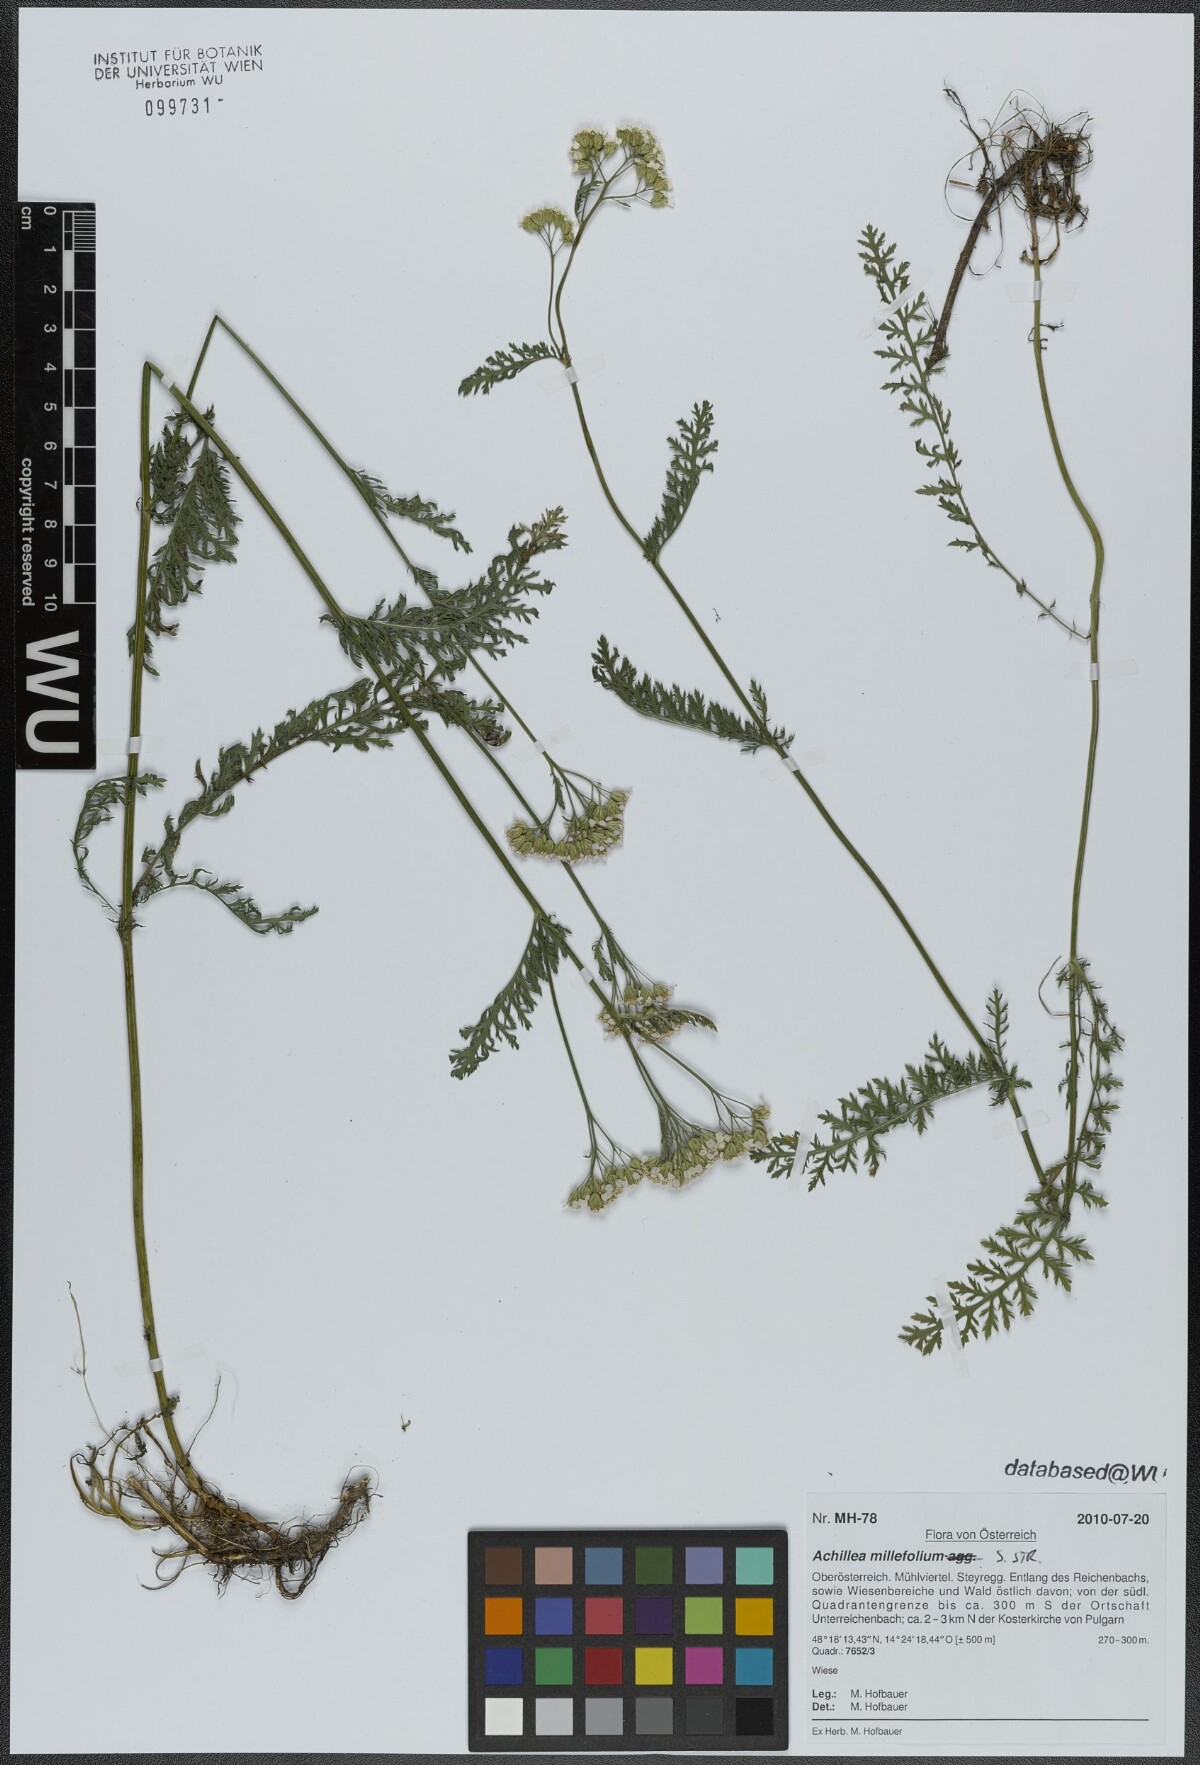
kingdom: Plantae
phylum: Tracheophyta
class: Magnoliopsida
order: Asterales
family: Asteraceae
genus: Achillea
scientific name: Achillea millefolium
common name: Yarrow
